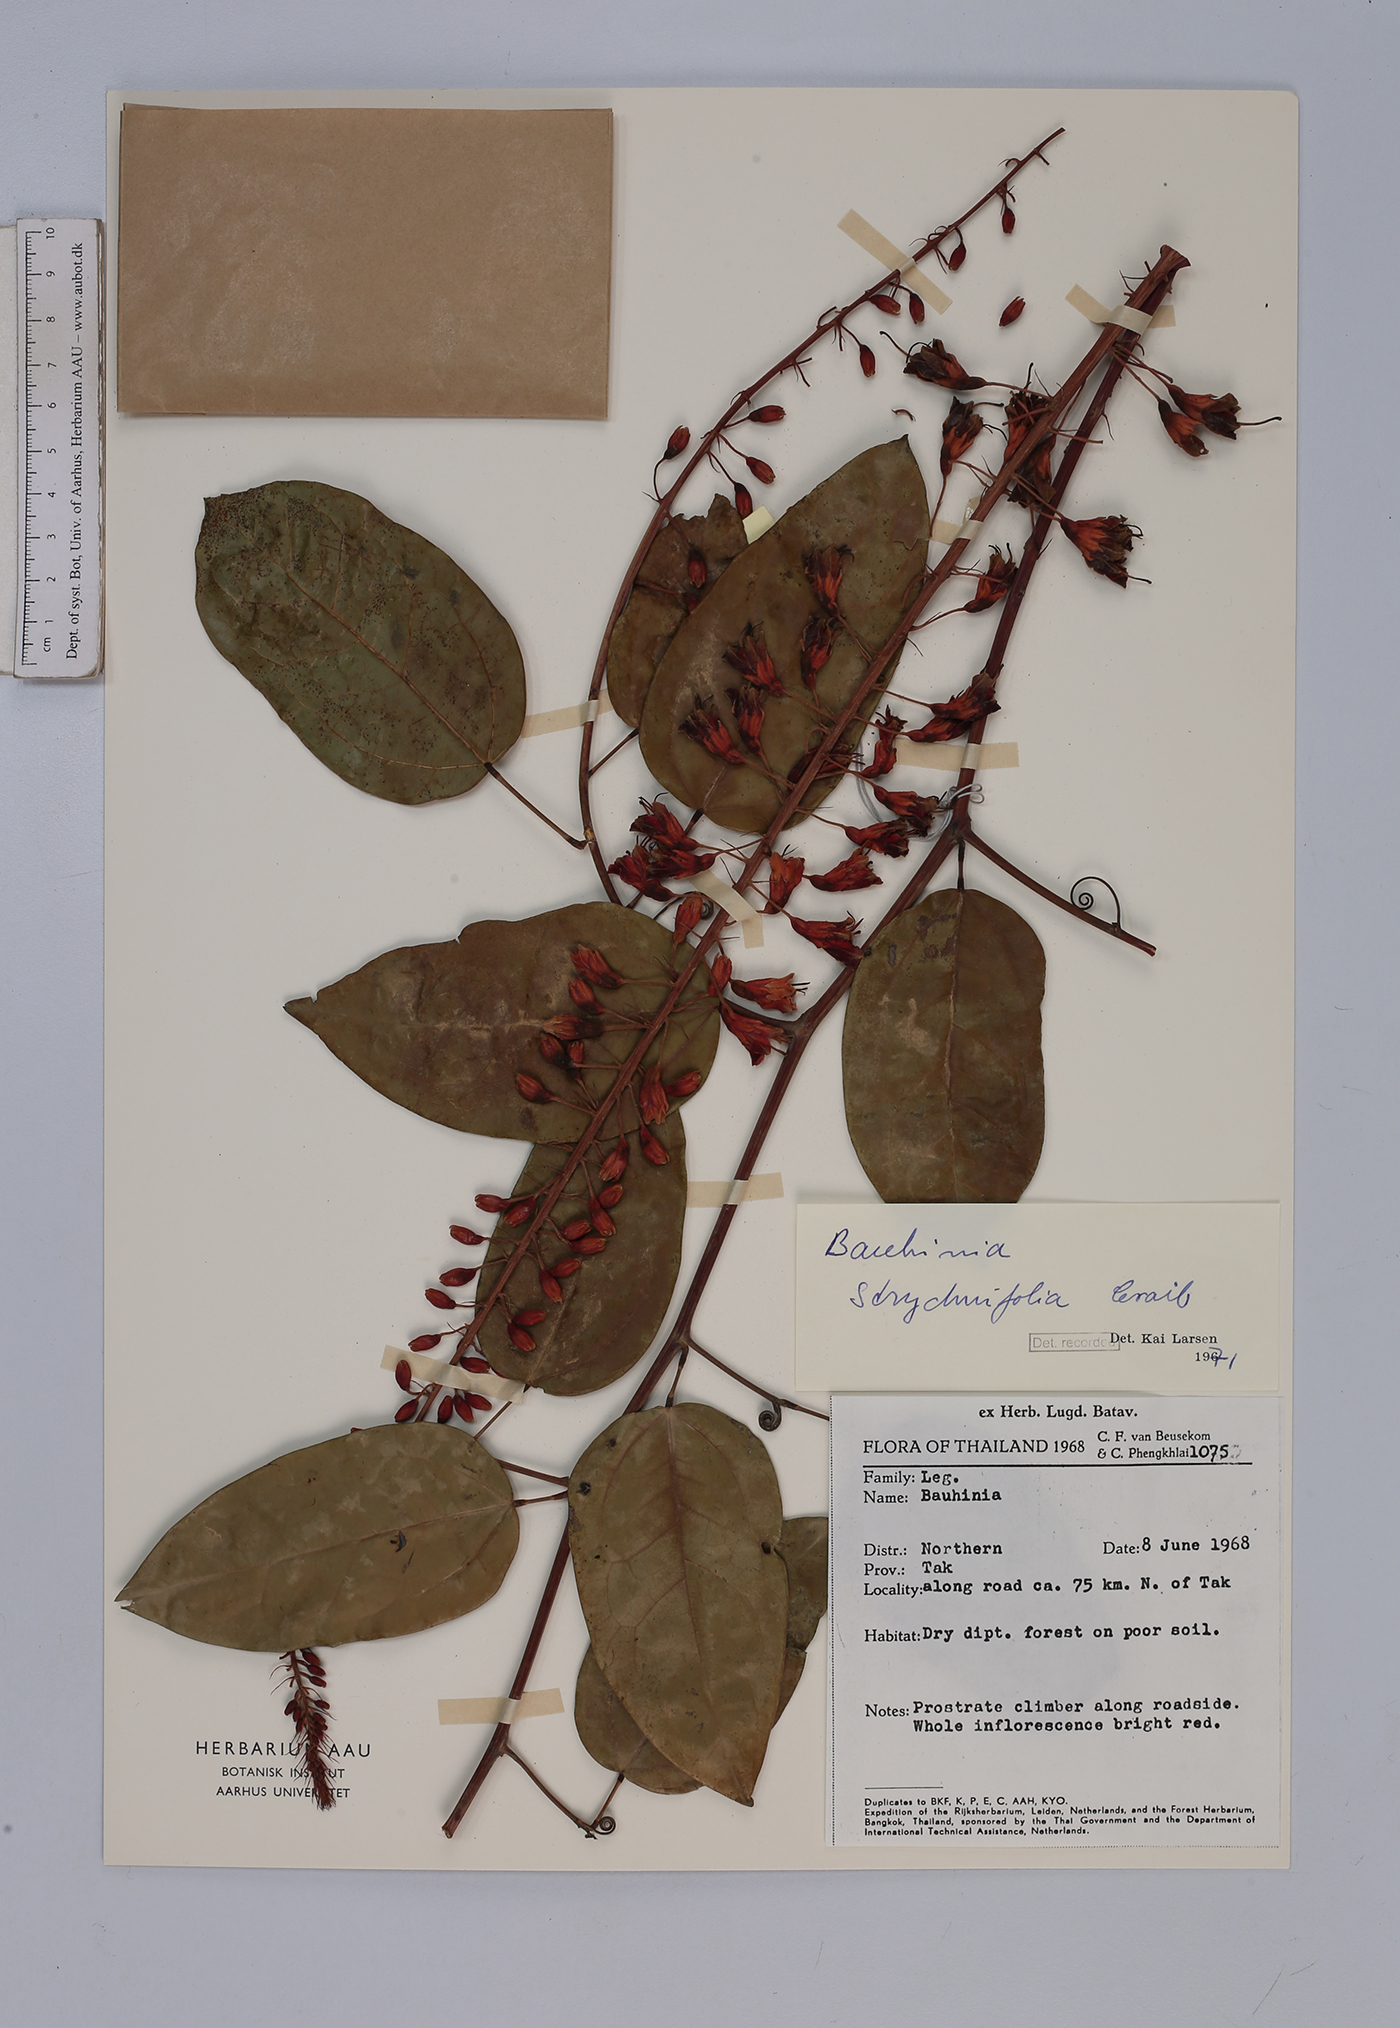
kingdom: Plantae
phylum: Tracheophyta
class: Magnoliopsida
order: Fabales
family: Fabaceae
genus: Lysiphyllum
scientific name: Lysiphyllum strychnifolium
